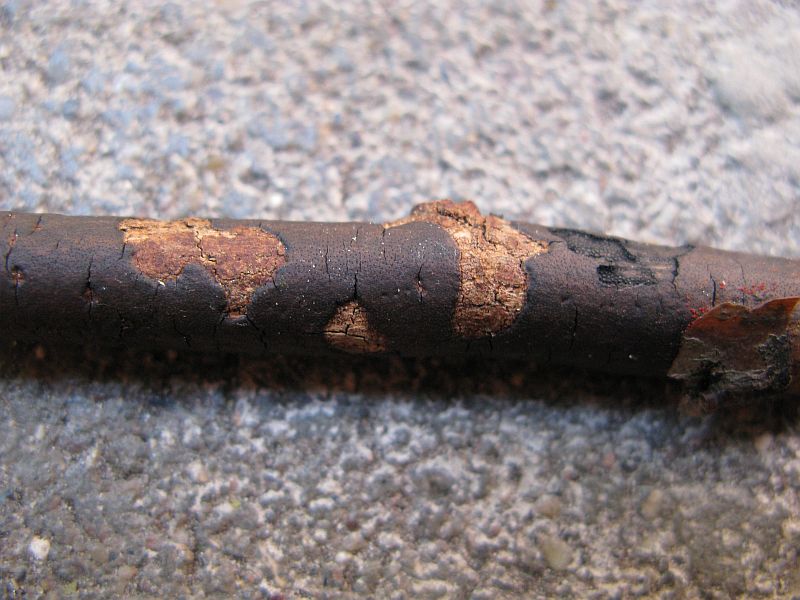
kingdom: Fungi
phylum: Ascomycota
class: Sordariomycetes
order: Xylariales
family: Diatrypaceae
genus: Diatrype
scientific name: Diatrype decorticata
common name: barksprænger-kulskorpe
